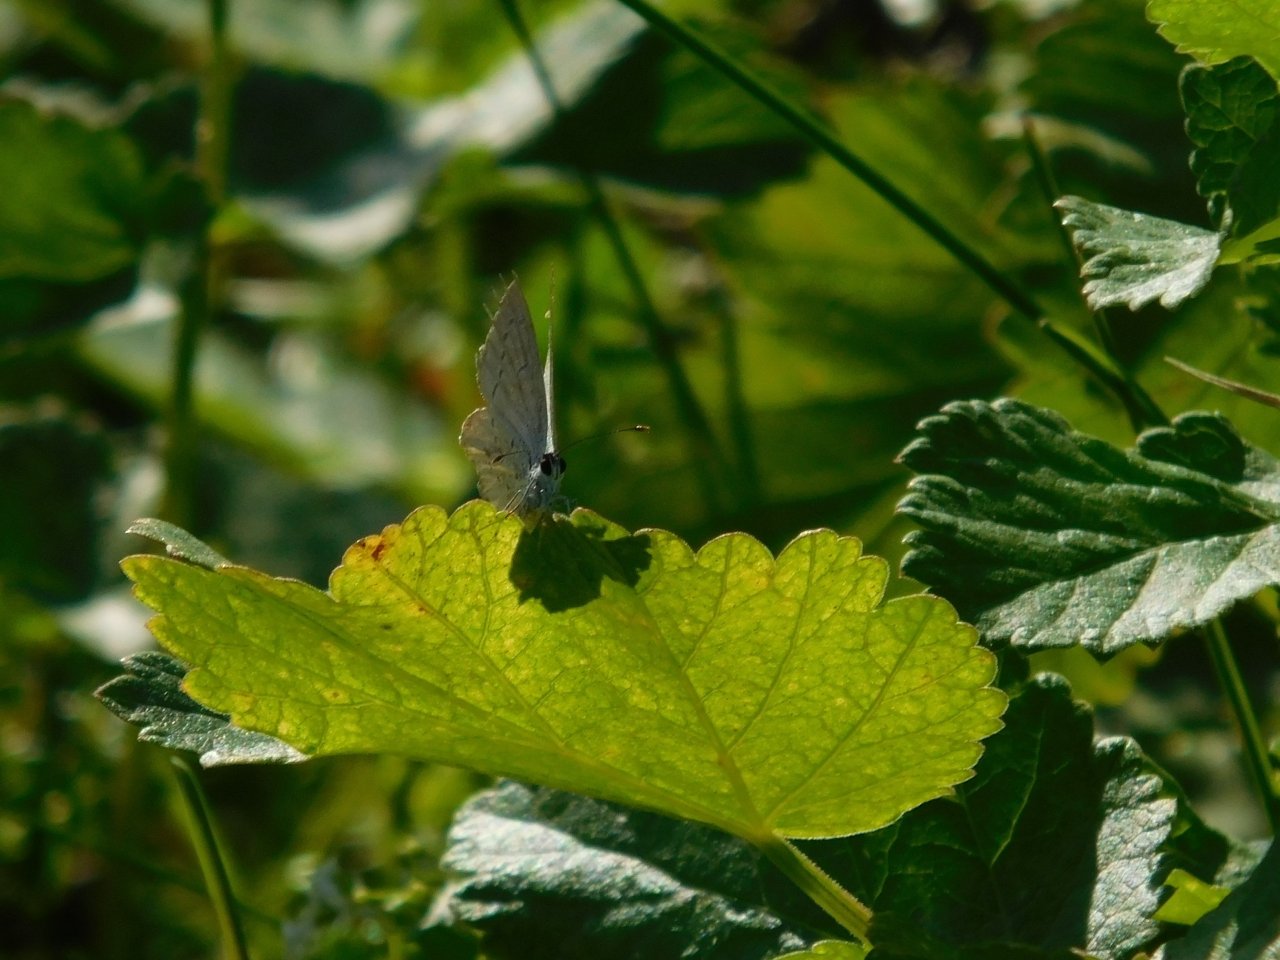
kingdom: Animalia
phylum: Arthropoda
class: Insecta
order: Lepidoptera
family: Lycaenidae
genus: Elkalyce
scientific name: Elkalyce comyntas
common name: Eastern Tailed-Blue
